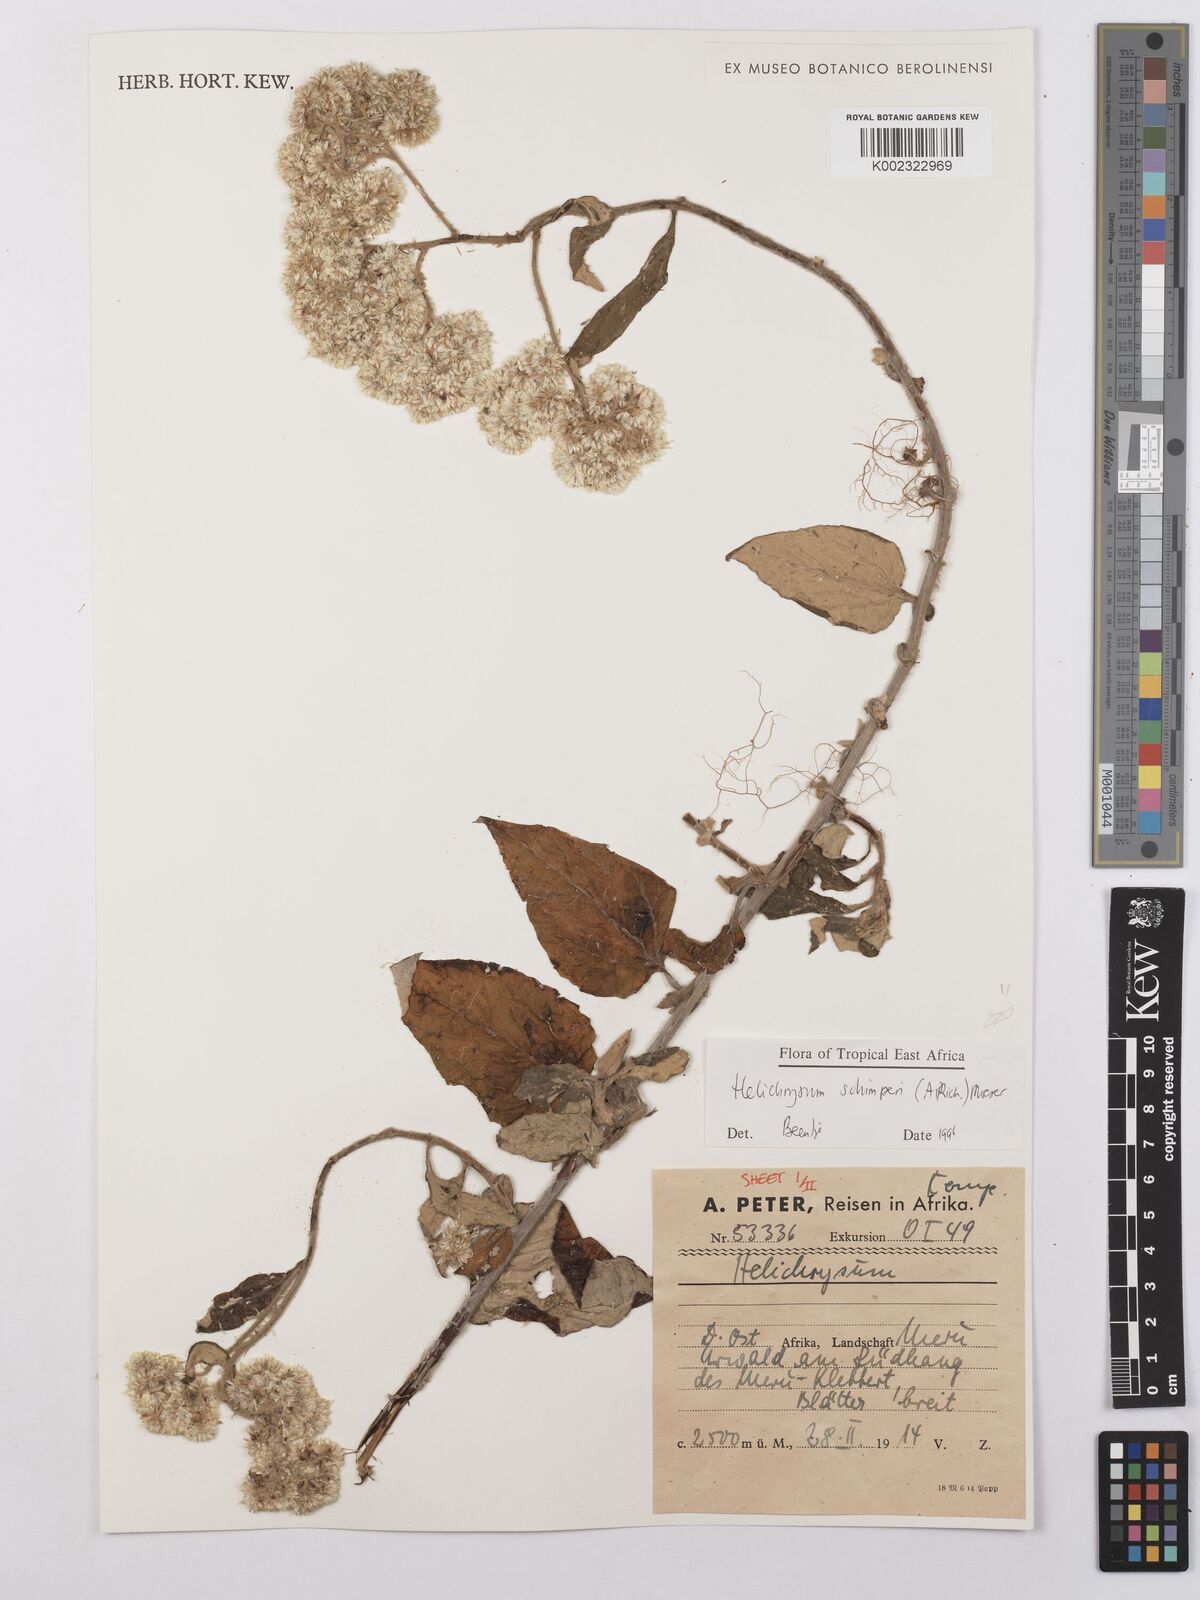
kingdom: Plantae
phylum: Tracheophyta
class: Magnoliopsida
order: Asterales
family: Asteraceae
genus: Helichrysum
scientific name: Helichrysum schimperi
